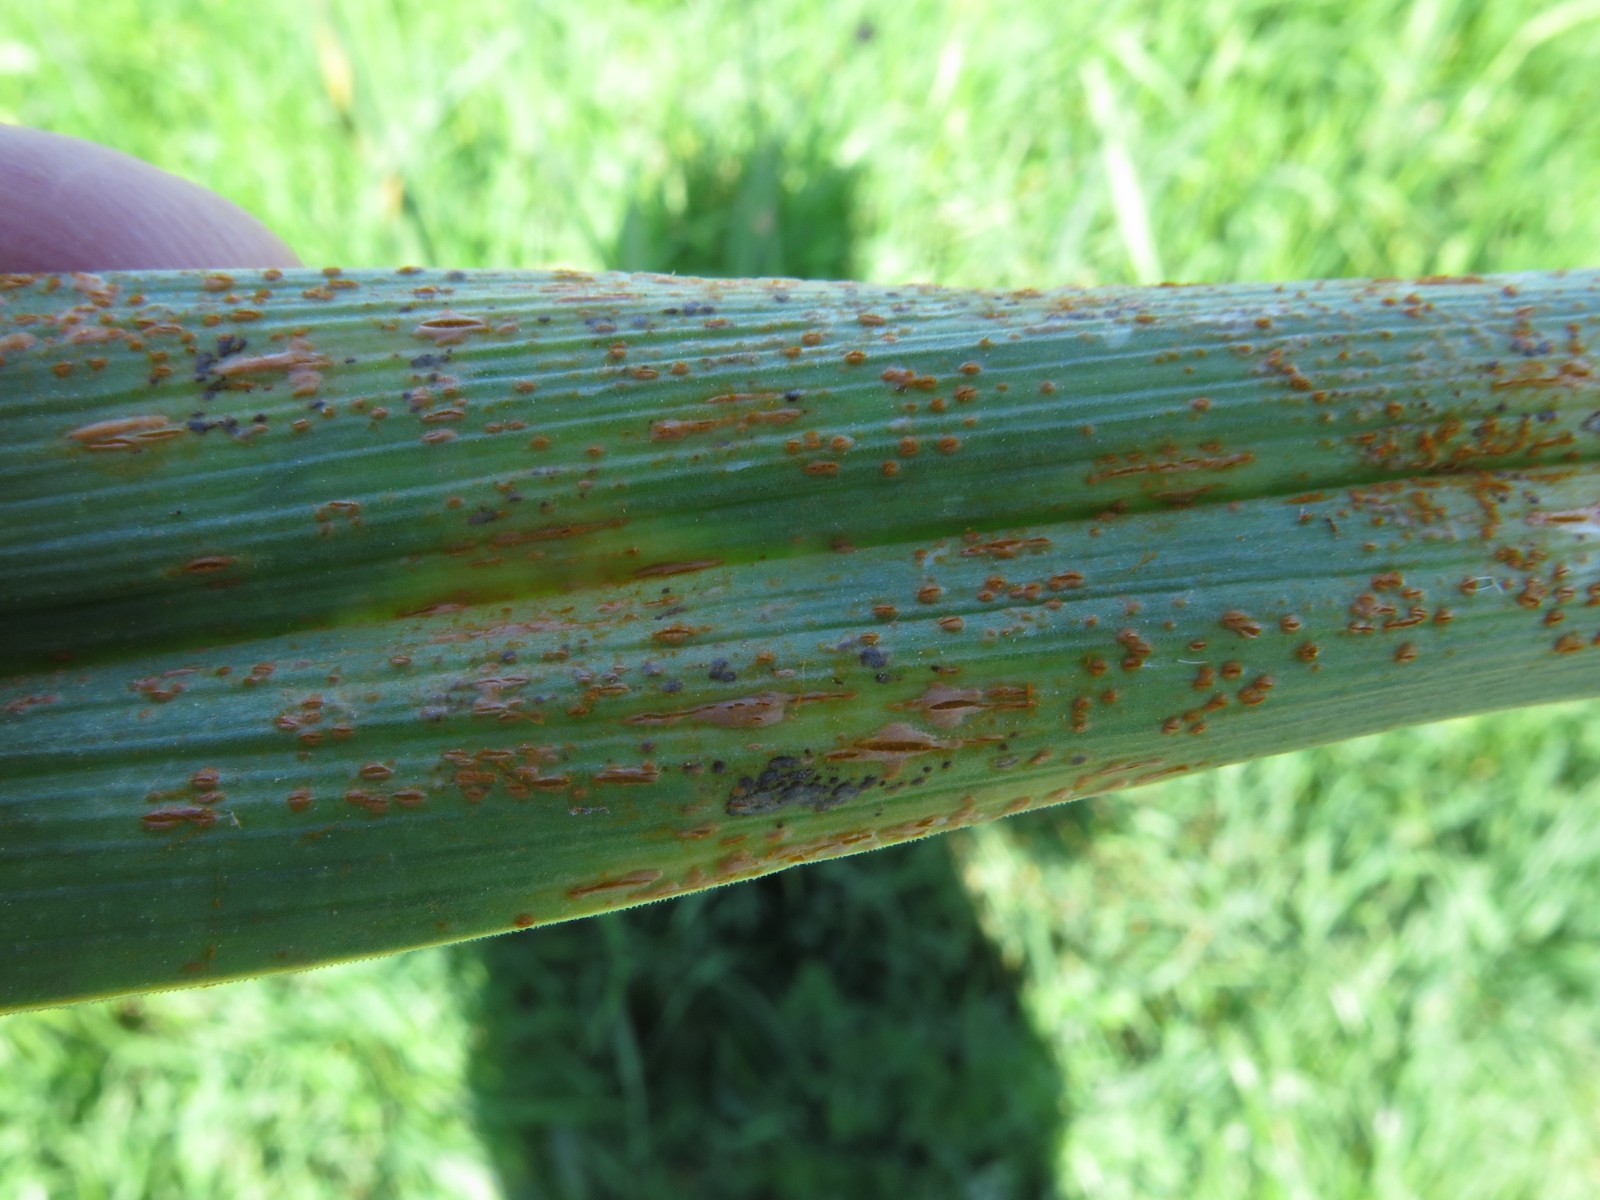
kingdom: Fungi
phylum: Basidiomycota
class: Pucciniomycetes
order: Pucciniales
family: Pucciniaceae
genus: Puccinia
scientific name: Puccinia porri
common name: Allium rust
